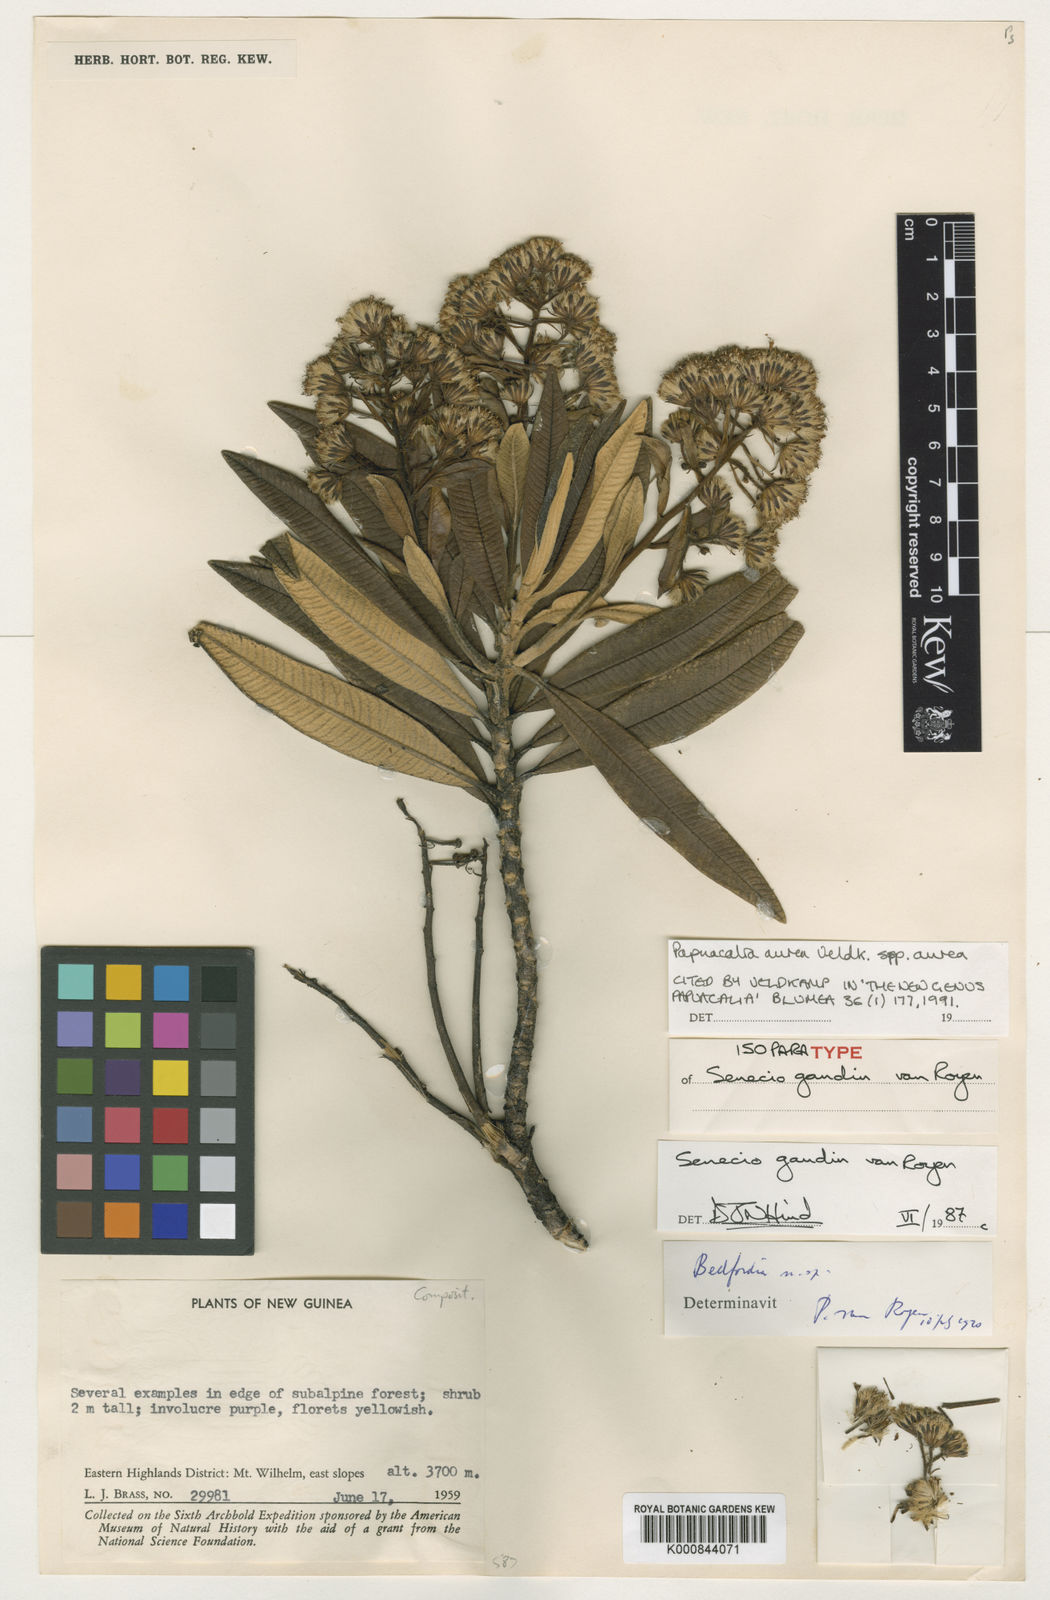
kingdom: Plantae
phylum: Tracheophyta
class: Magnoliopsida
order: Asterales
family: Asteraceae
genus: Papuacalia
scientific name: Papuacalia aurea
